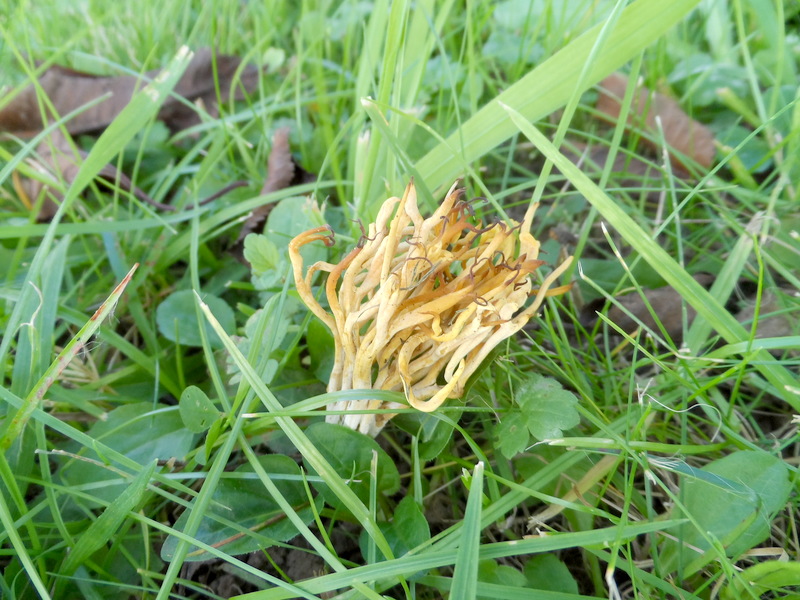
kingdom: Fungi
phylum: Basidiomycota
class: Agaricomycetes
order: Agaricales
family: Clavariaceae
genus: Clavulinopsis
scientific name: Clavulinopsis corniculata
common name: Meadow coral
